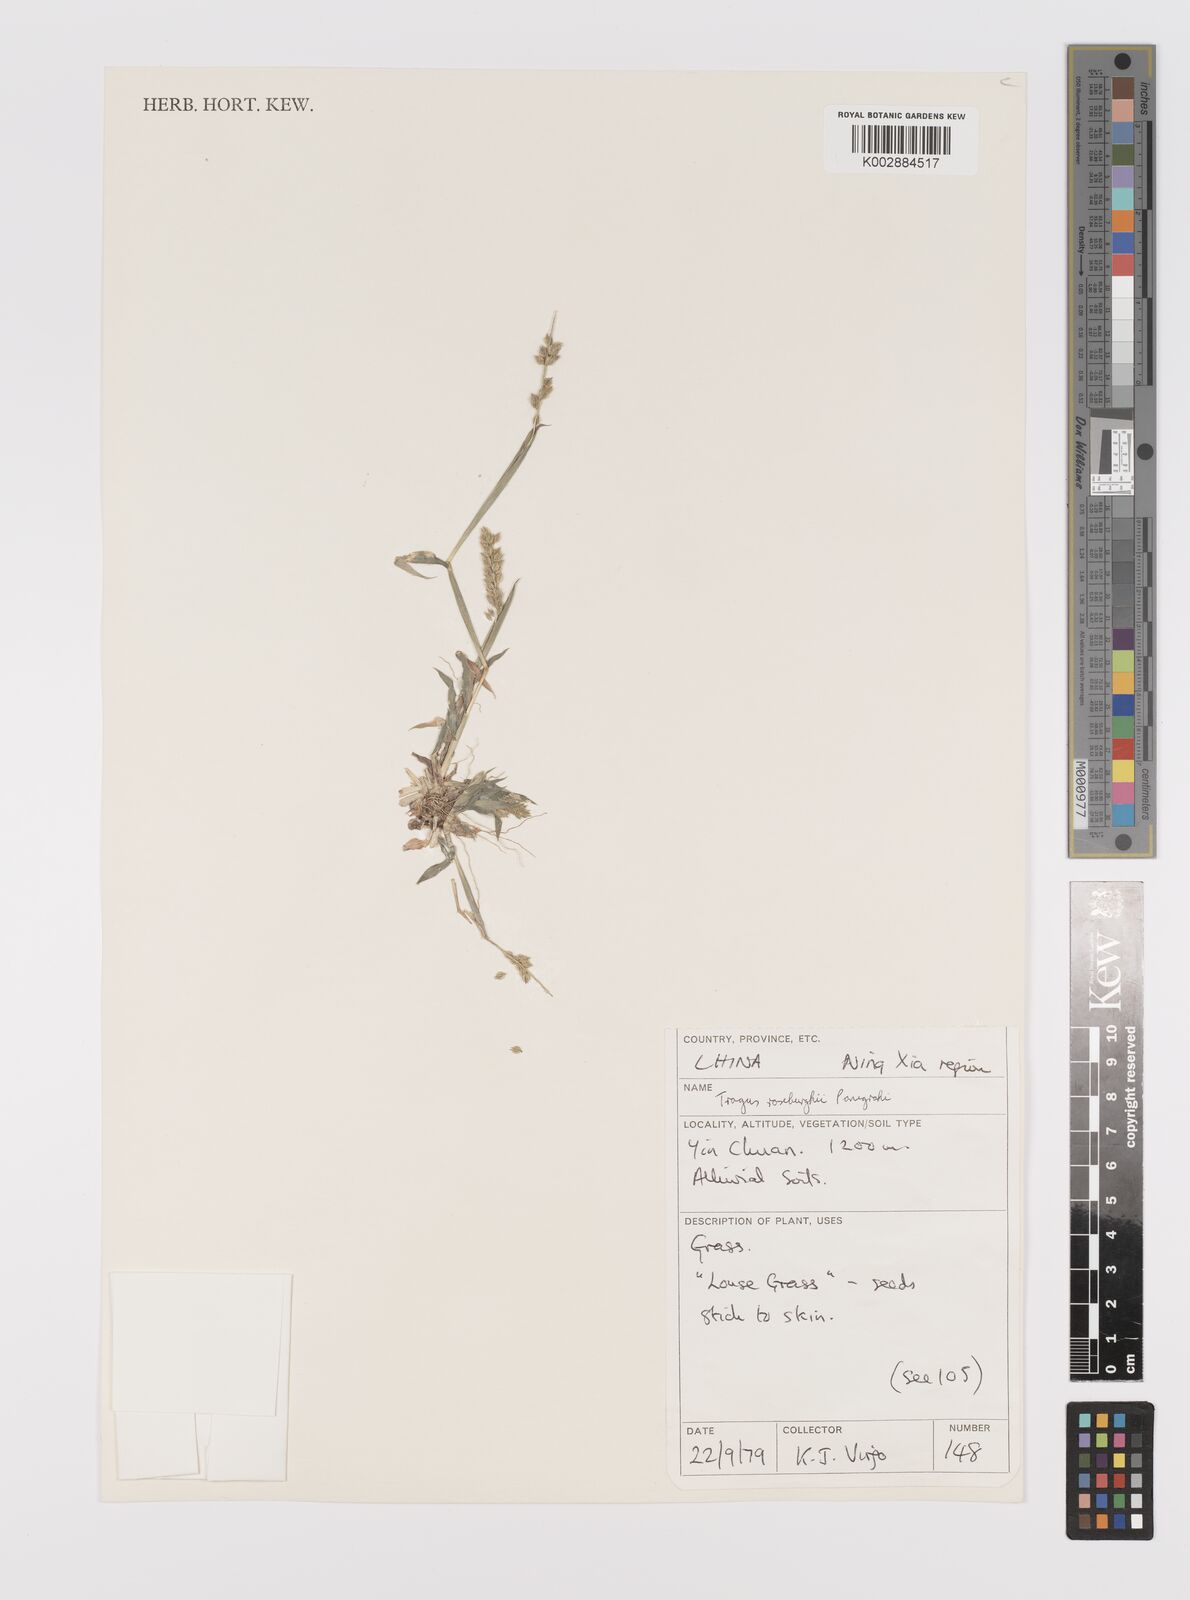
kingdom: Plantae
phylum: Tracheophyta
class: Liliopsida
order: Poales
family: Poaceae
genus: Tragus
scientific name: Tragus mongolorum
